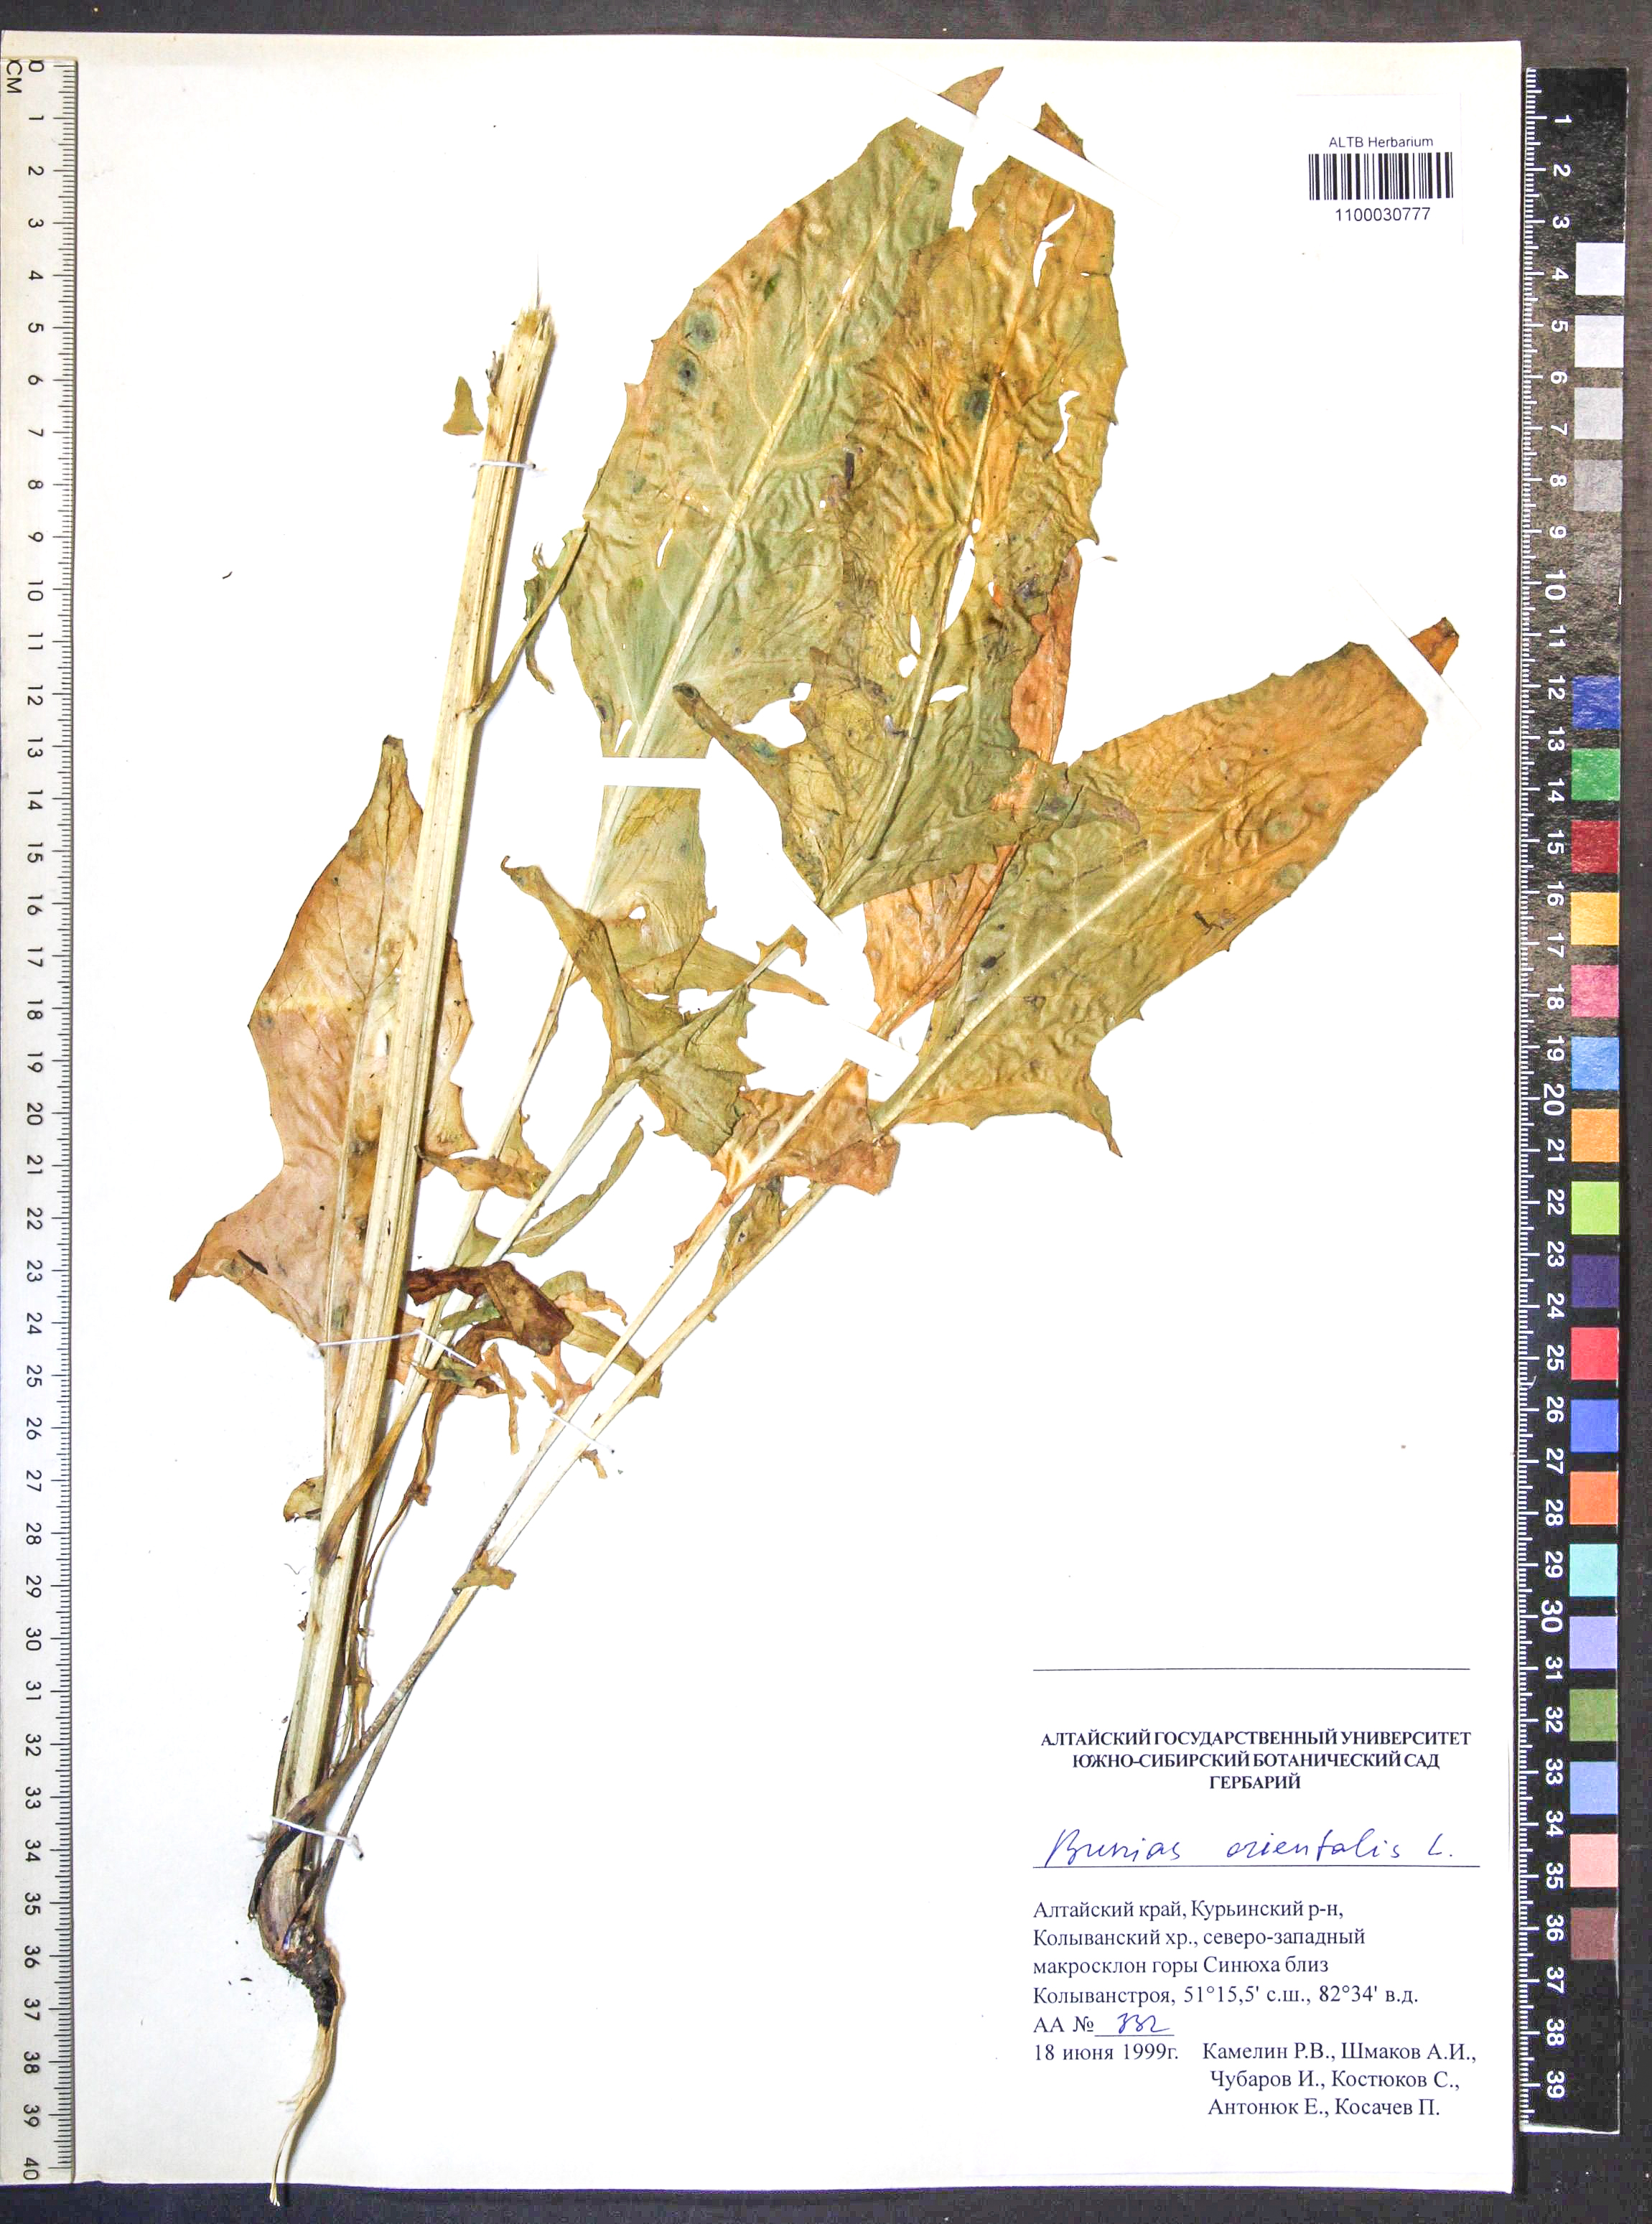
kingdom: Plantae
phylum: Tracheophyta
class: Magnoliopsida
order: Brassicales
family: Brassicaceae
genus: Bunias
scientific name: Bunias orientalis
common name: Warty-cabbage
